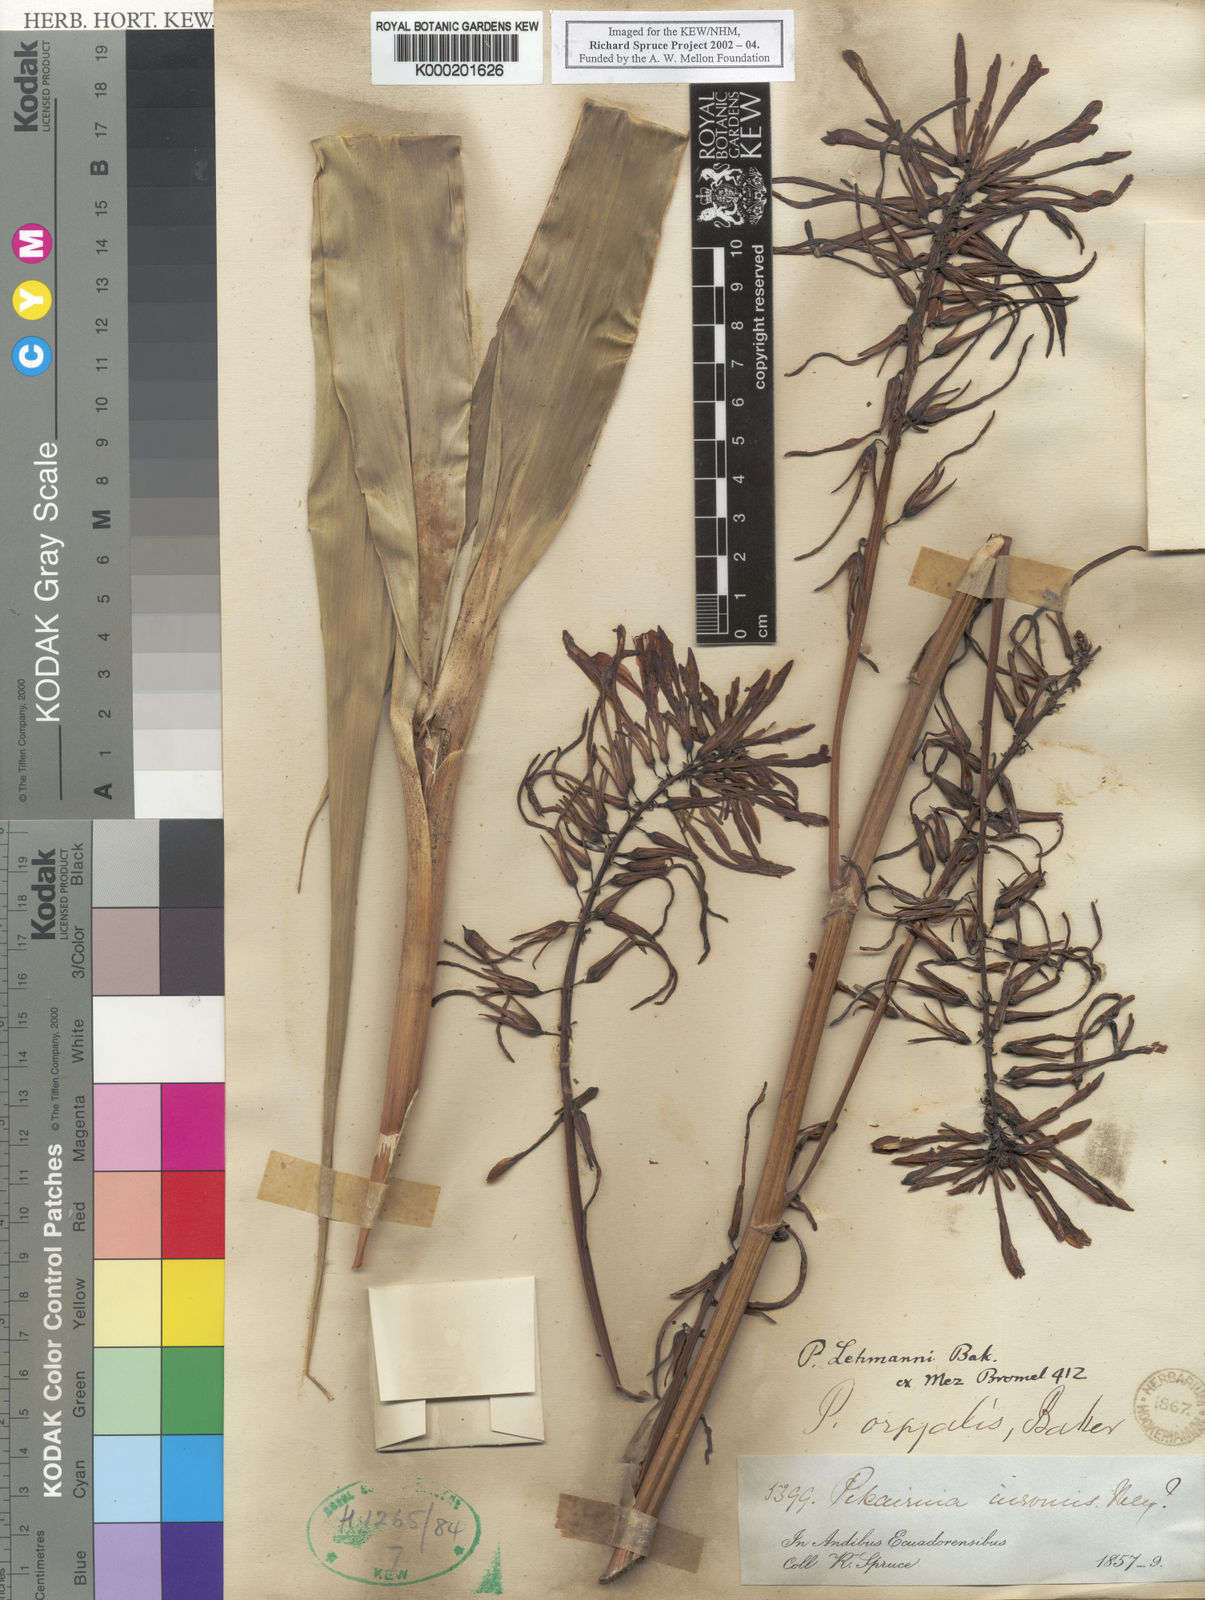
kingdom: Plantae
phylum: Tracheophyta
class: Liliopsida
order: Poales
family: Bromeliaceae
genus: Pitcairnia
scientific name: Pitcairnia
